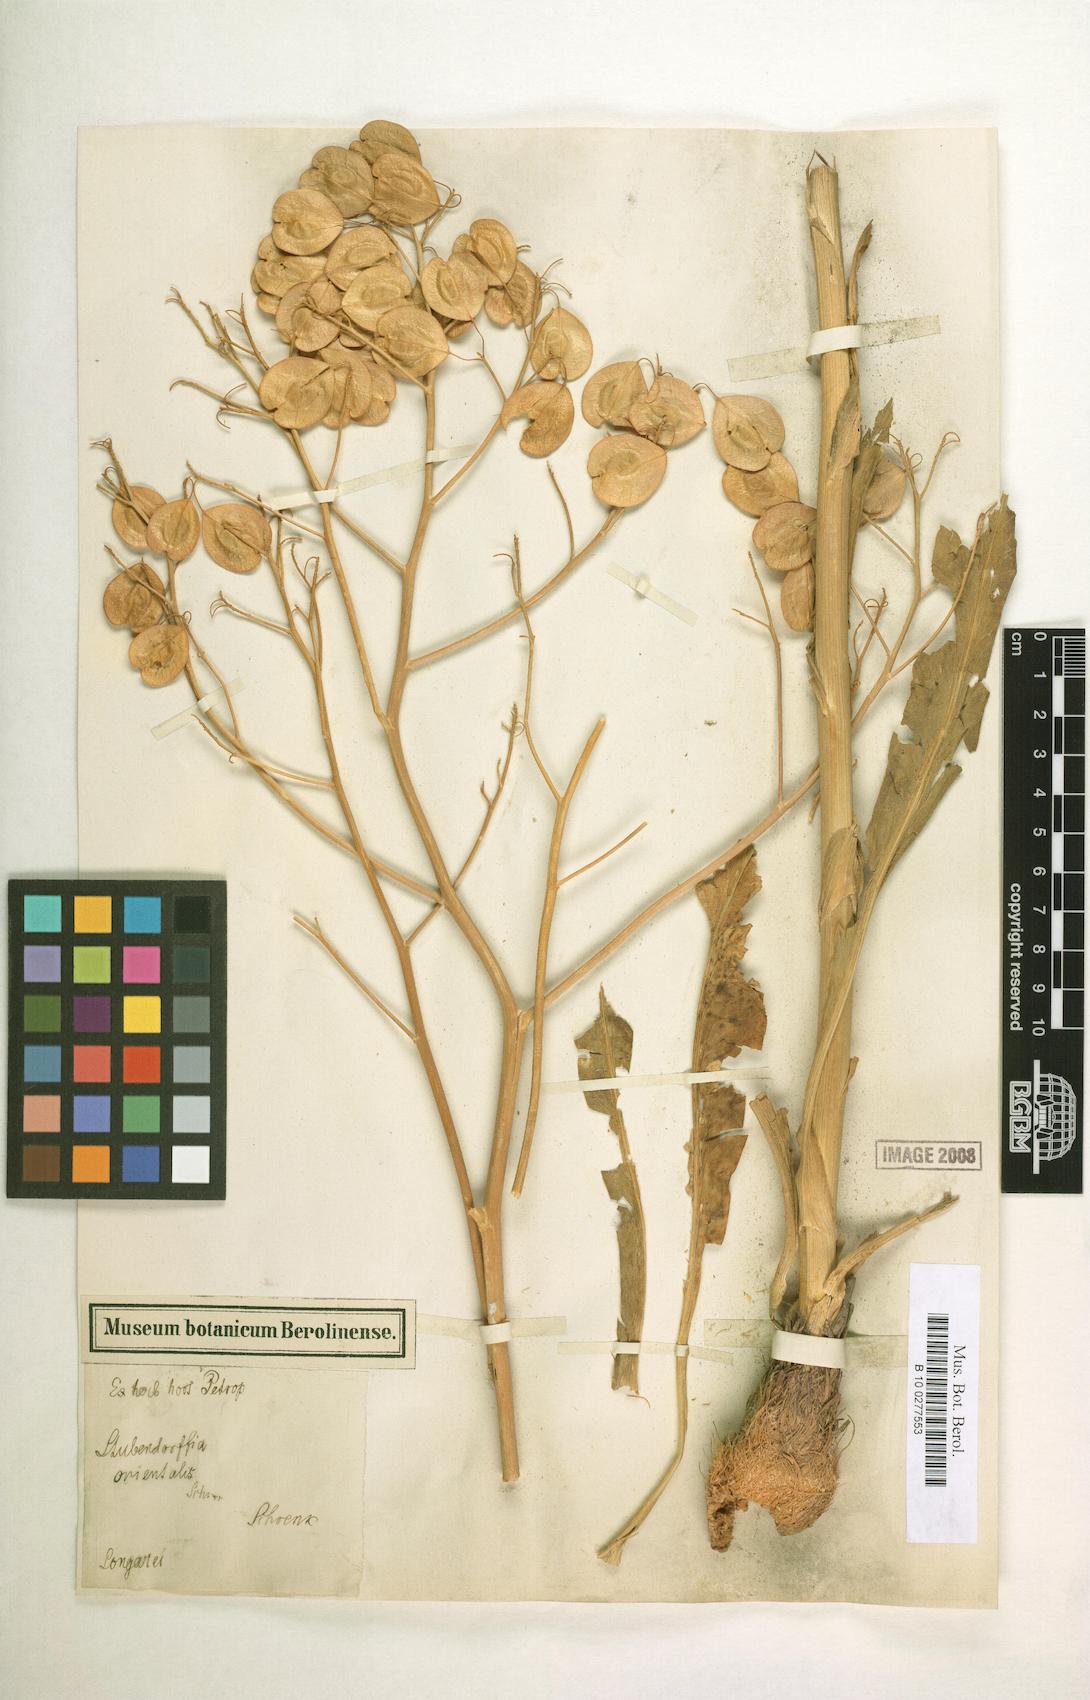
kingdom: Plantae
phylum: Tracheophyta
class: Magnoliopsida
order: Brassicales
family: Brassicaceae
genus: Lepidium
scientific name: Lepidium orientale
